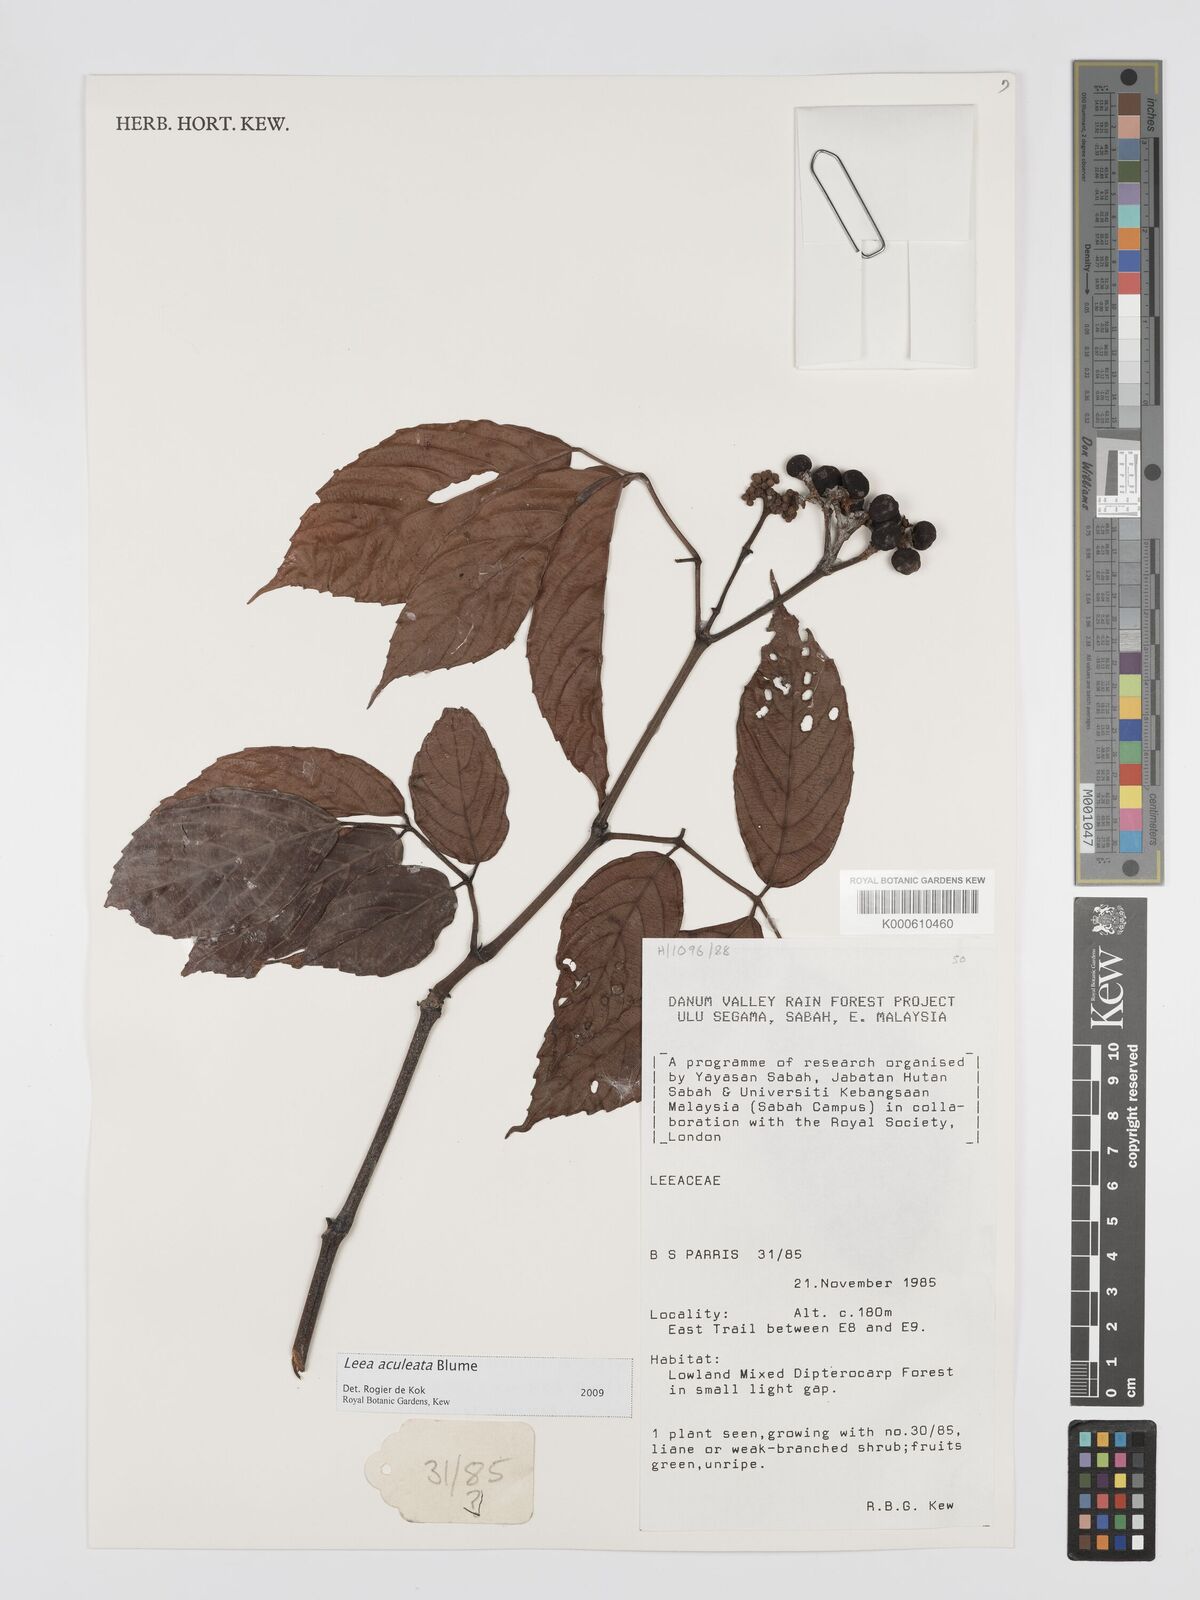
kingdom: Plantae
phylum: Tracheophyta
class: Magnoliopsida
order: Vitales
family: Vitaceae
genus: Leea
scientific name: Leea aculeata
